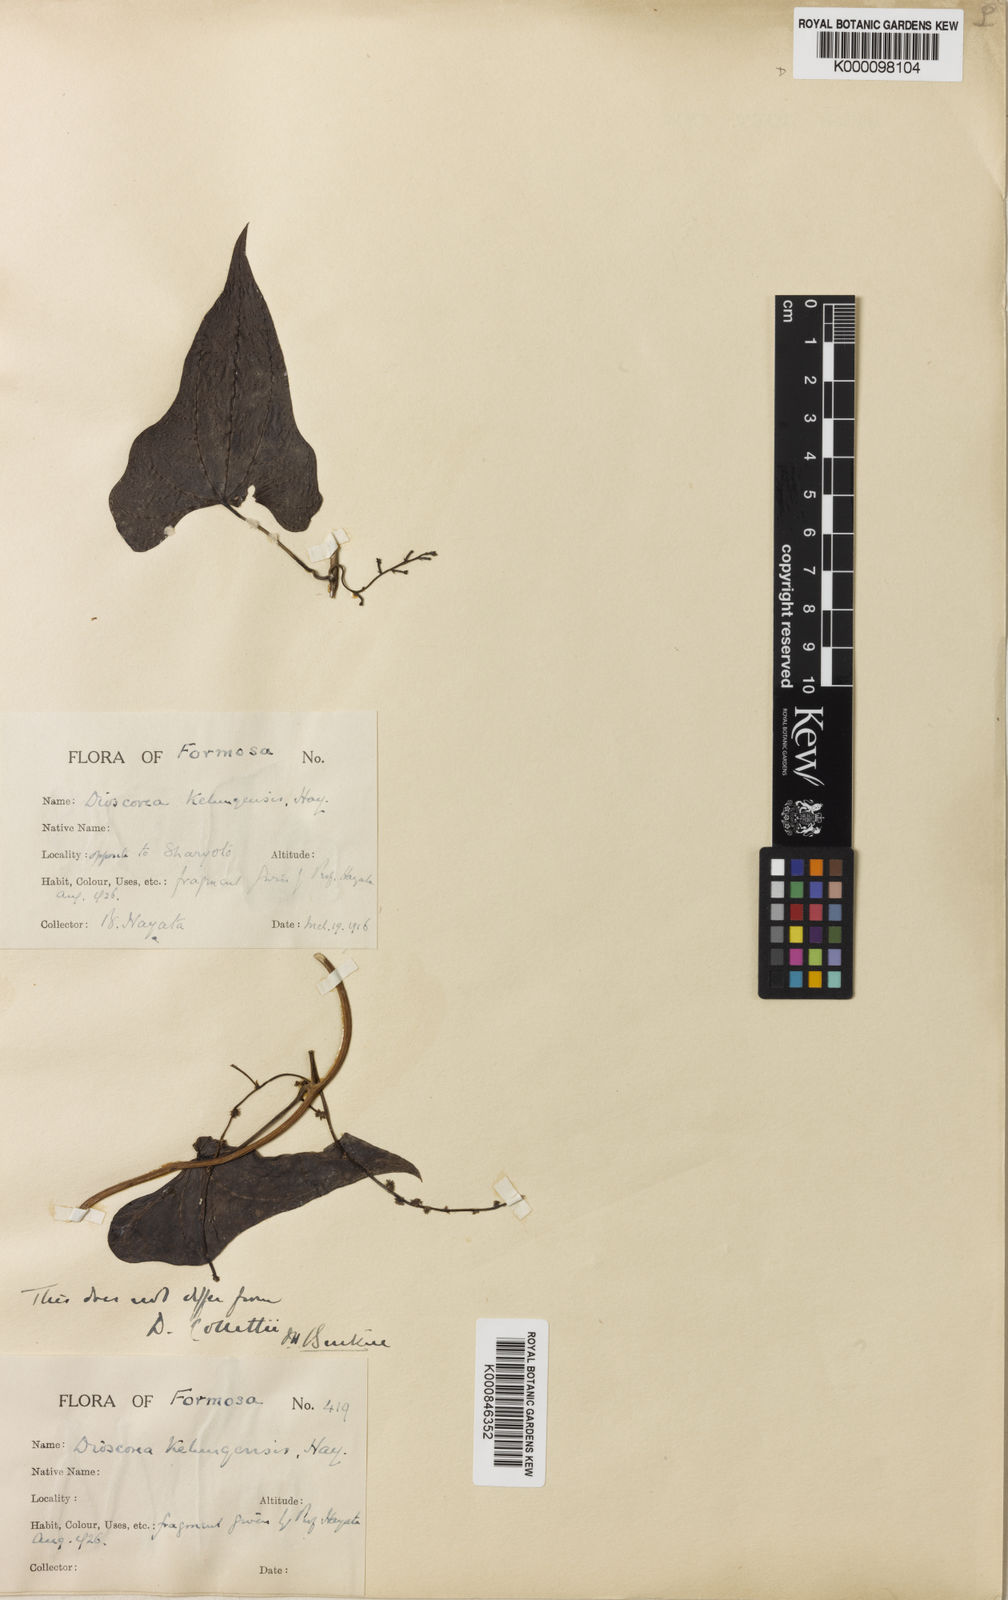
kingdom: Plantae
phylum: Tracheophyta
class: Liliopsida
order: Dioscoreales
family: Dioscoreaceae
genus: Dioscorea
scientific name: Dioscorea collettii
